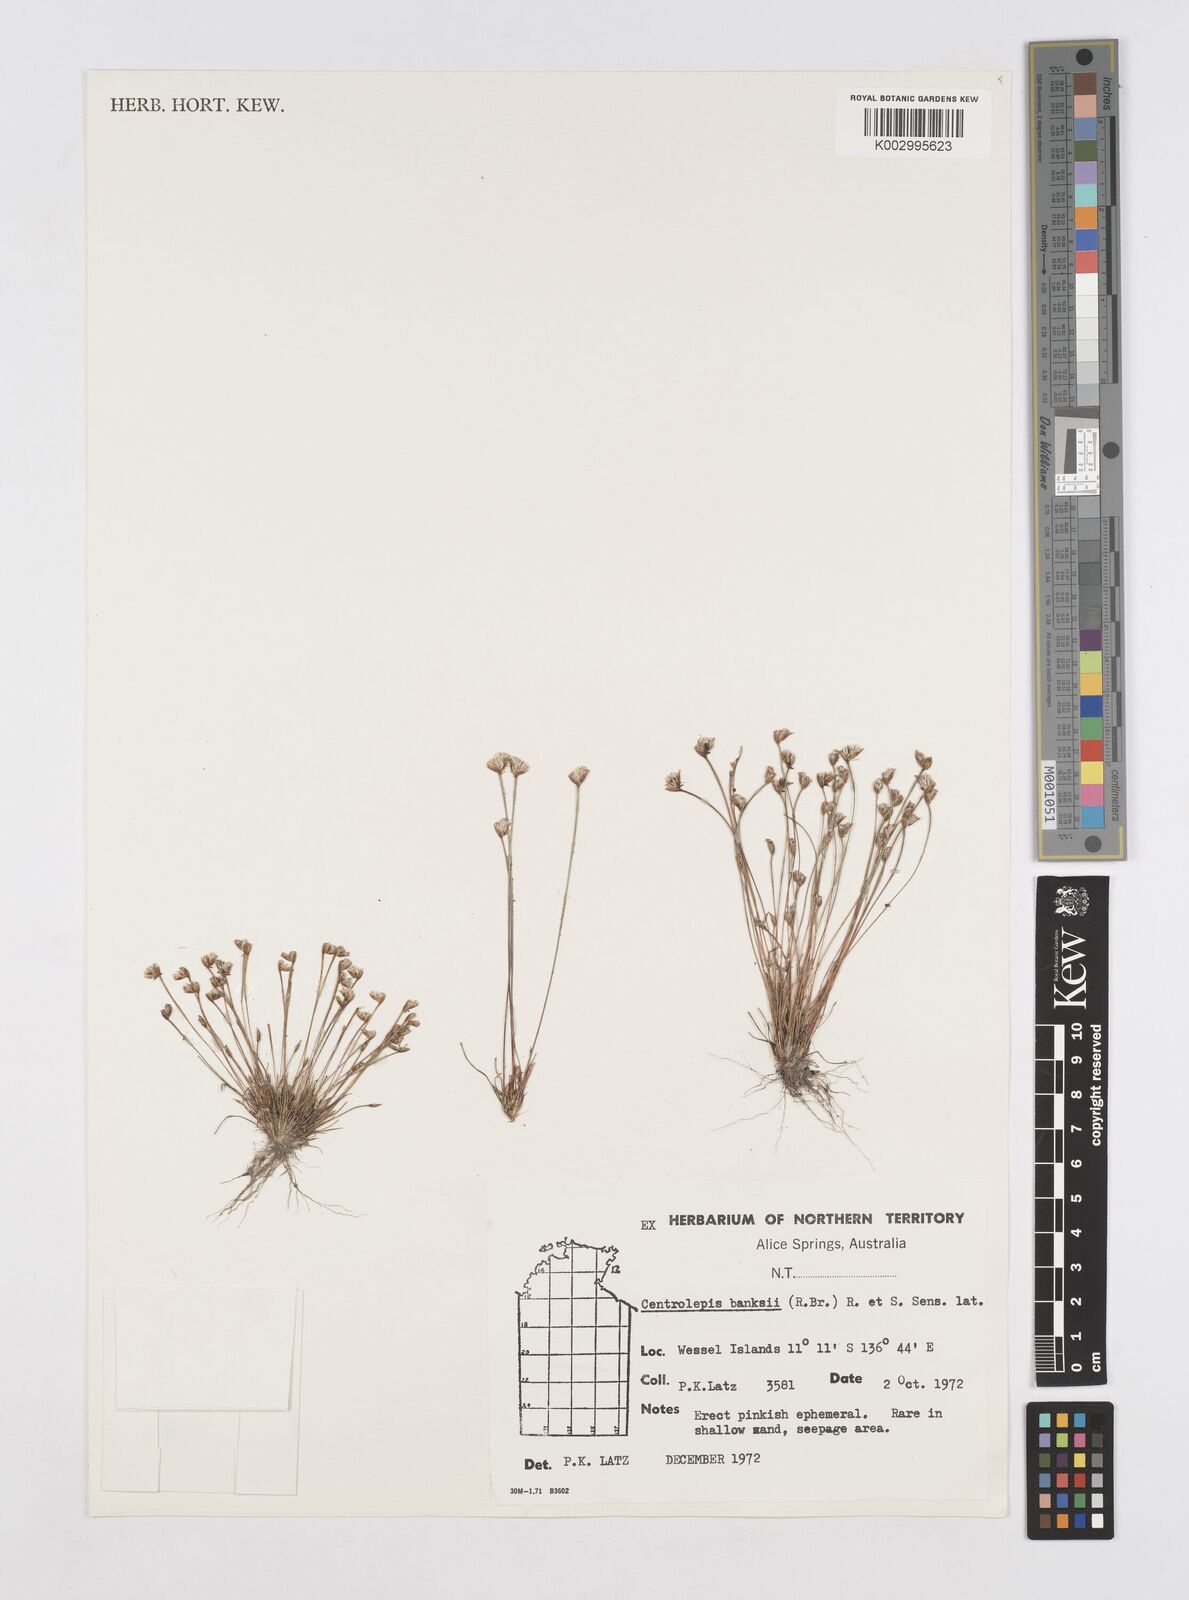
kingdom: Plantae
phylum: Tracheophyta
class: Liliopsida
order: Poales
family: Restionaceae
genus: Centrolepis
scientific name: Centrolepis banksii
